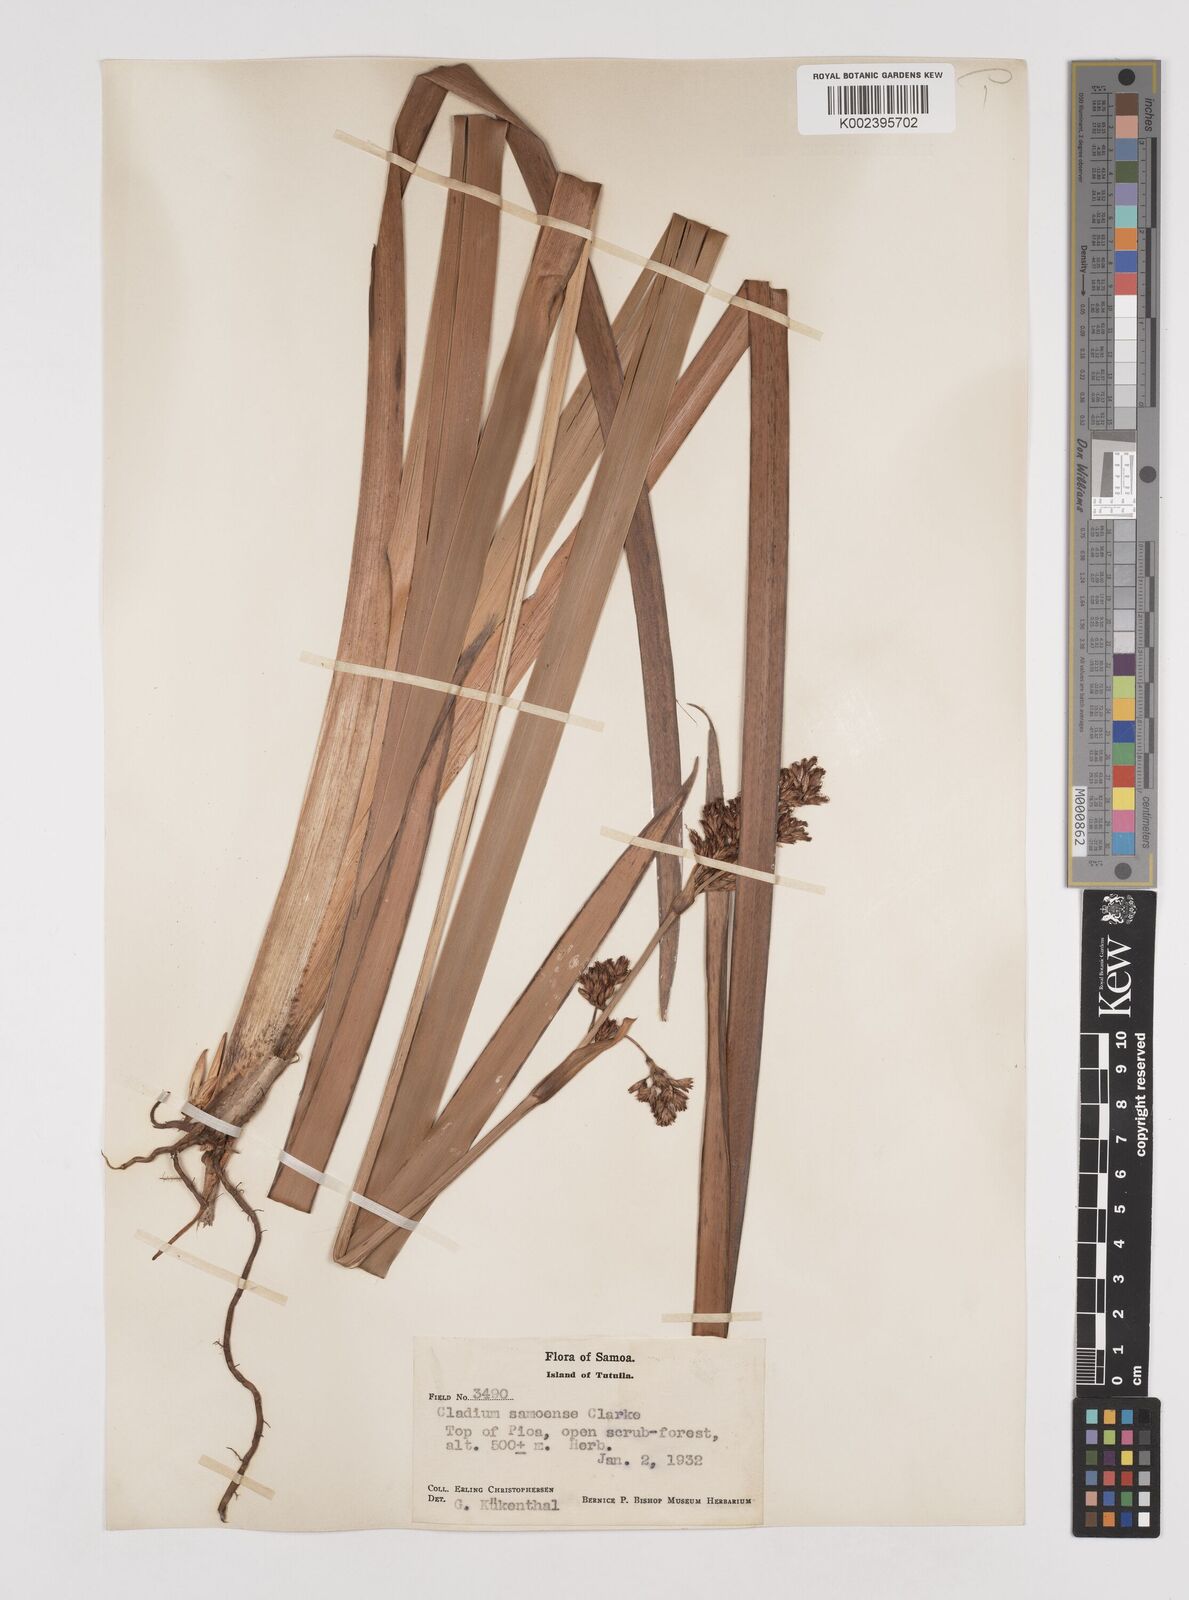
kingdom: Plantae
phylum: Tracheophyta
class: Liliopsida
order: Poales
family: Cyperaceae
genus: Machaerina
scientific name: Machaerina falcata
